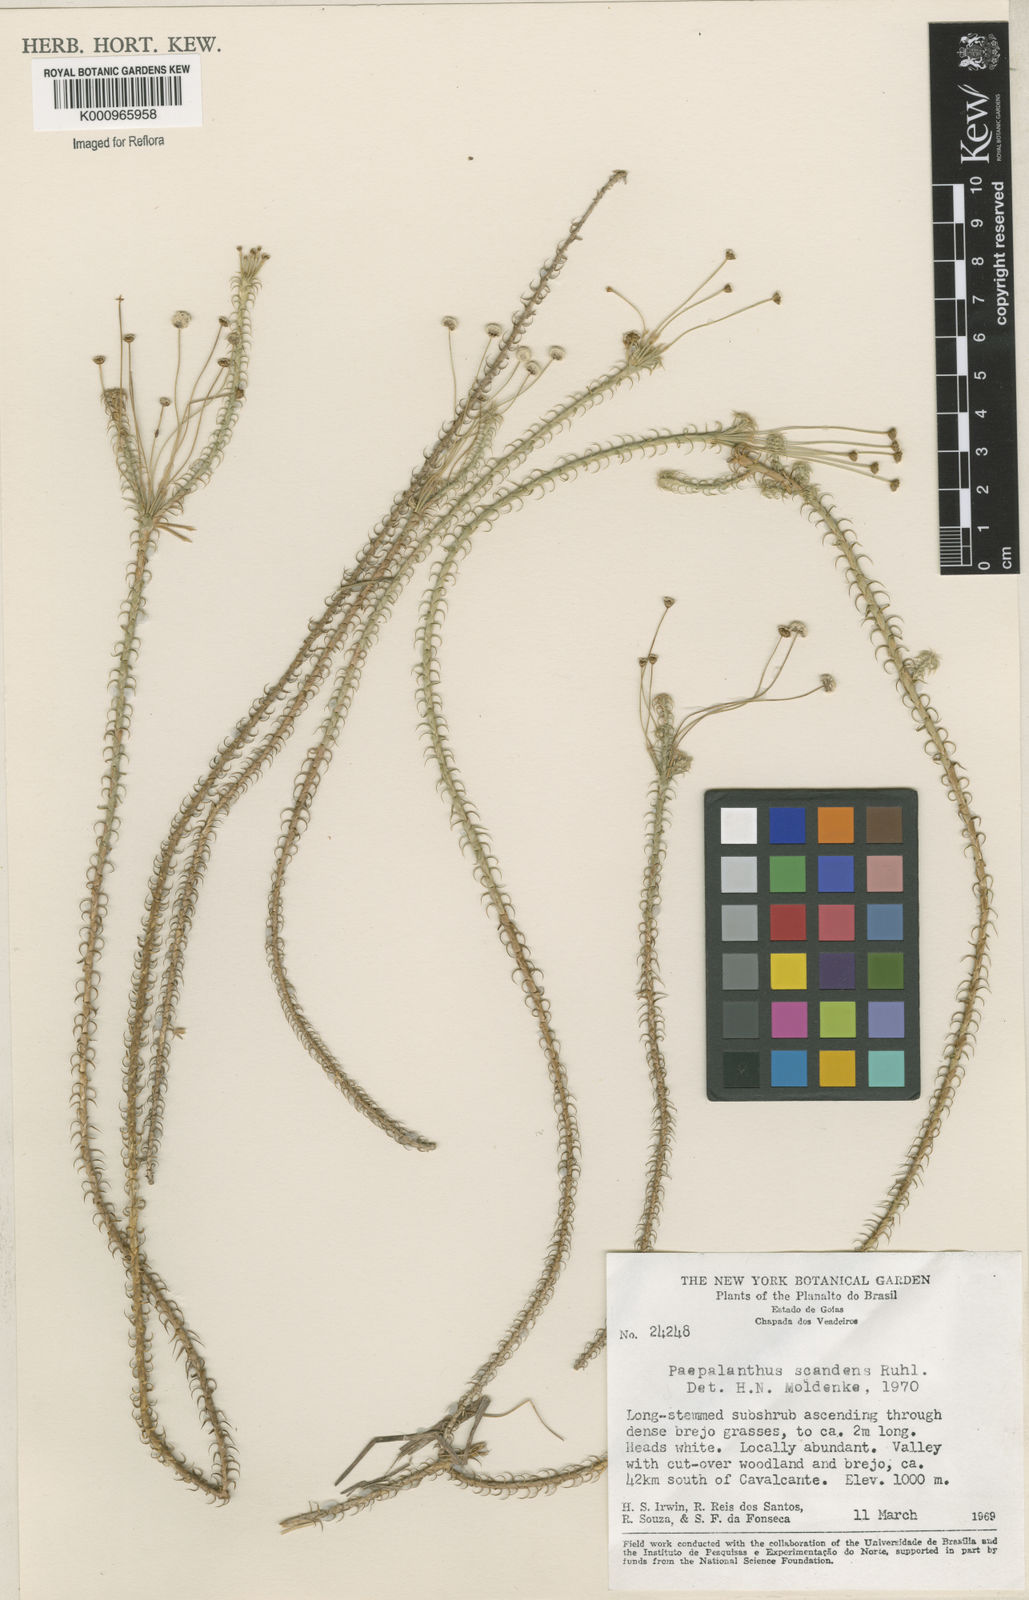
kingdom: Plantae
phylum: Tracheophyta
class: Liliopsida
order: Poales
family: Eriocaulaceae
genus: Paepalanthus
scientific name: Paepalanthus scandens
